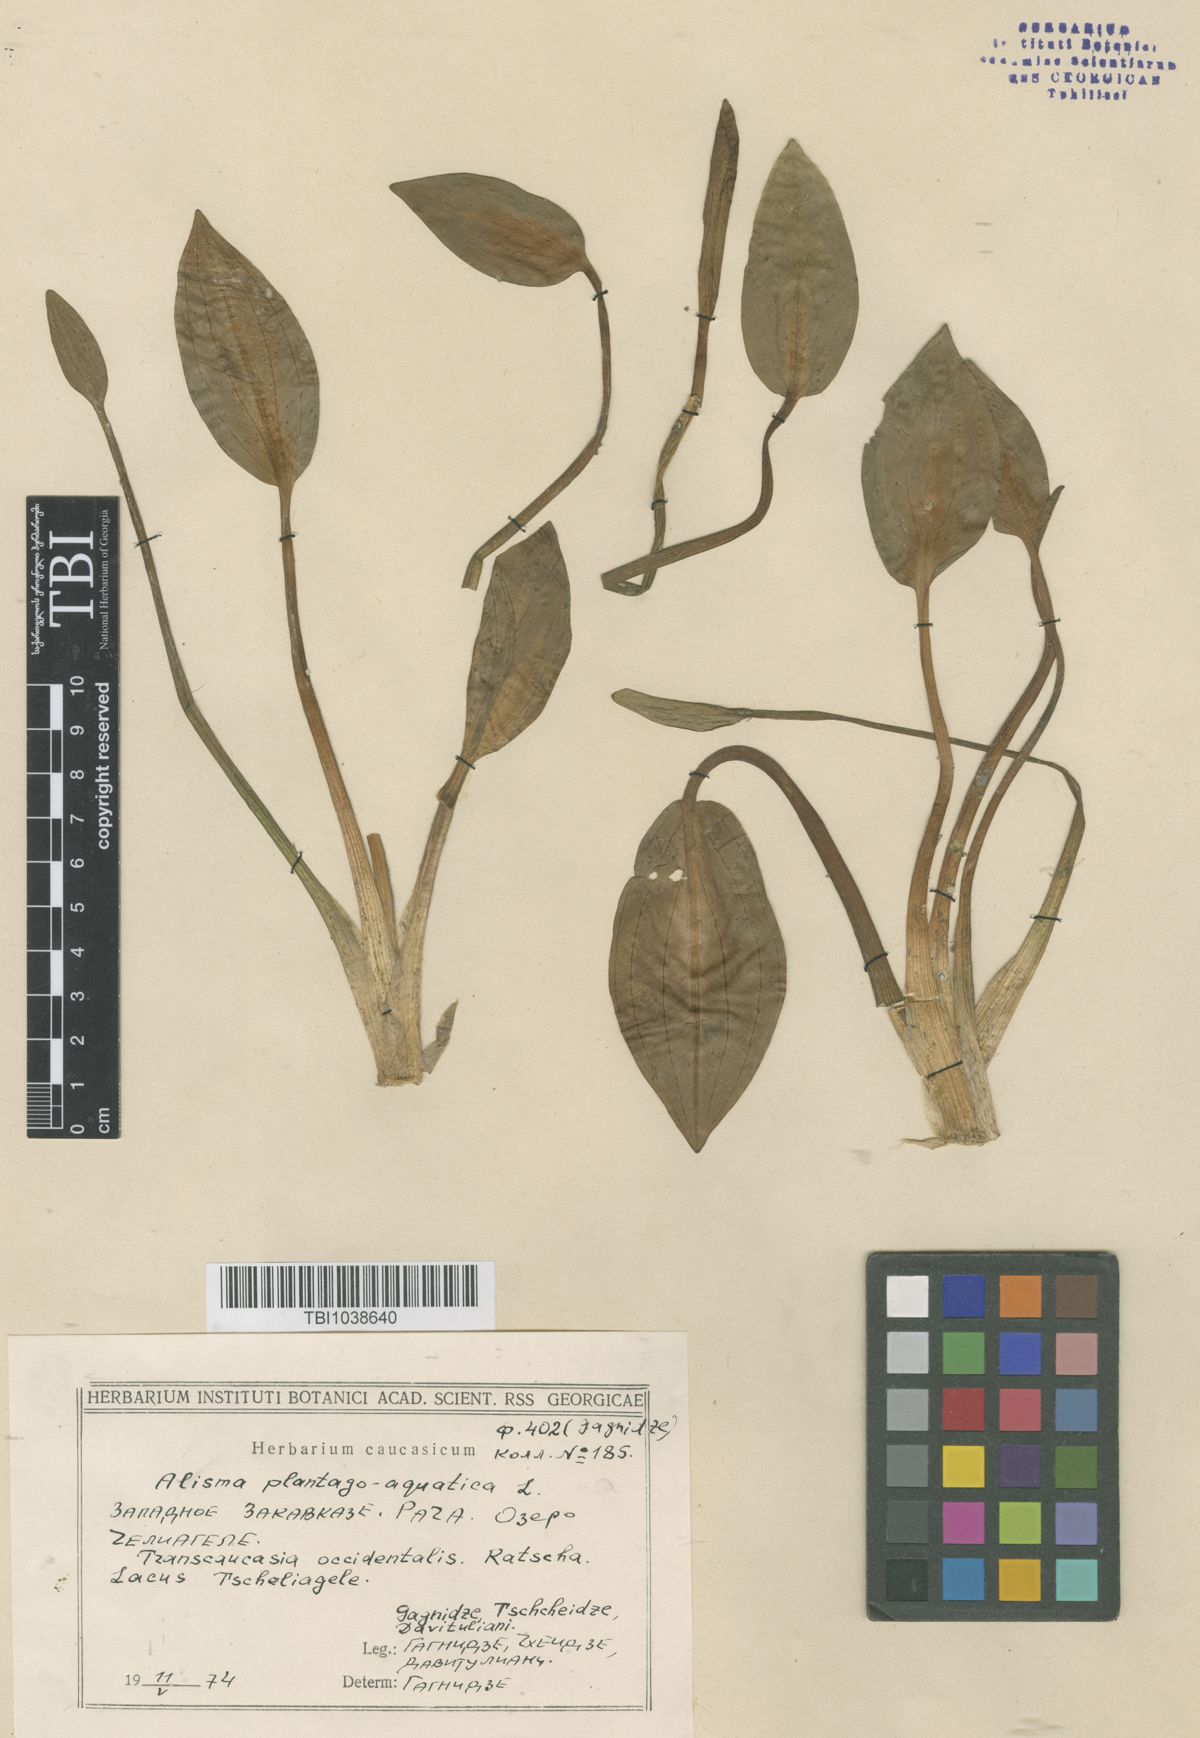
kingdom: Plantae
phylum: Tracheophyta
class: Liliopsida
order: Alismatales
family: Alismataceae
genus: Alisma
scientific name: Alisma plantago-aquatica
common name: Water-plantain
